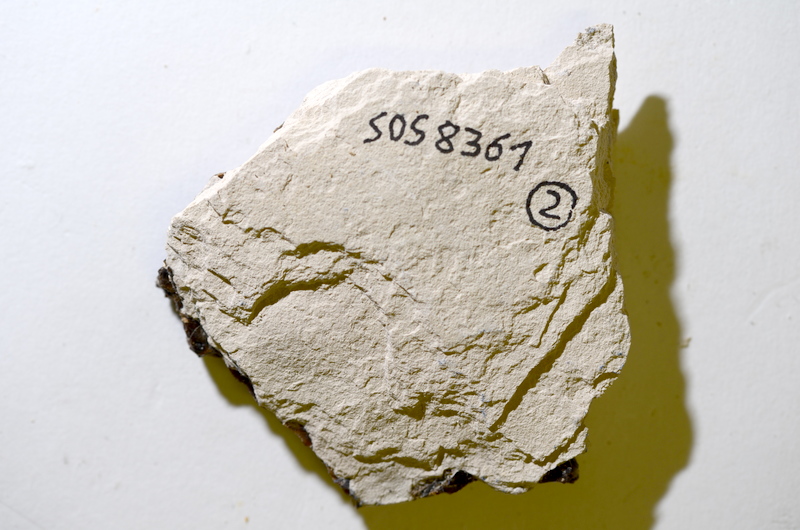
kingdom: Animalia
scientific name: Animalia
